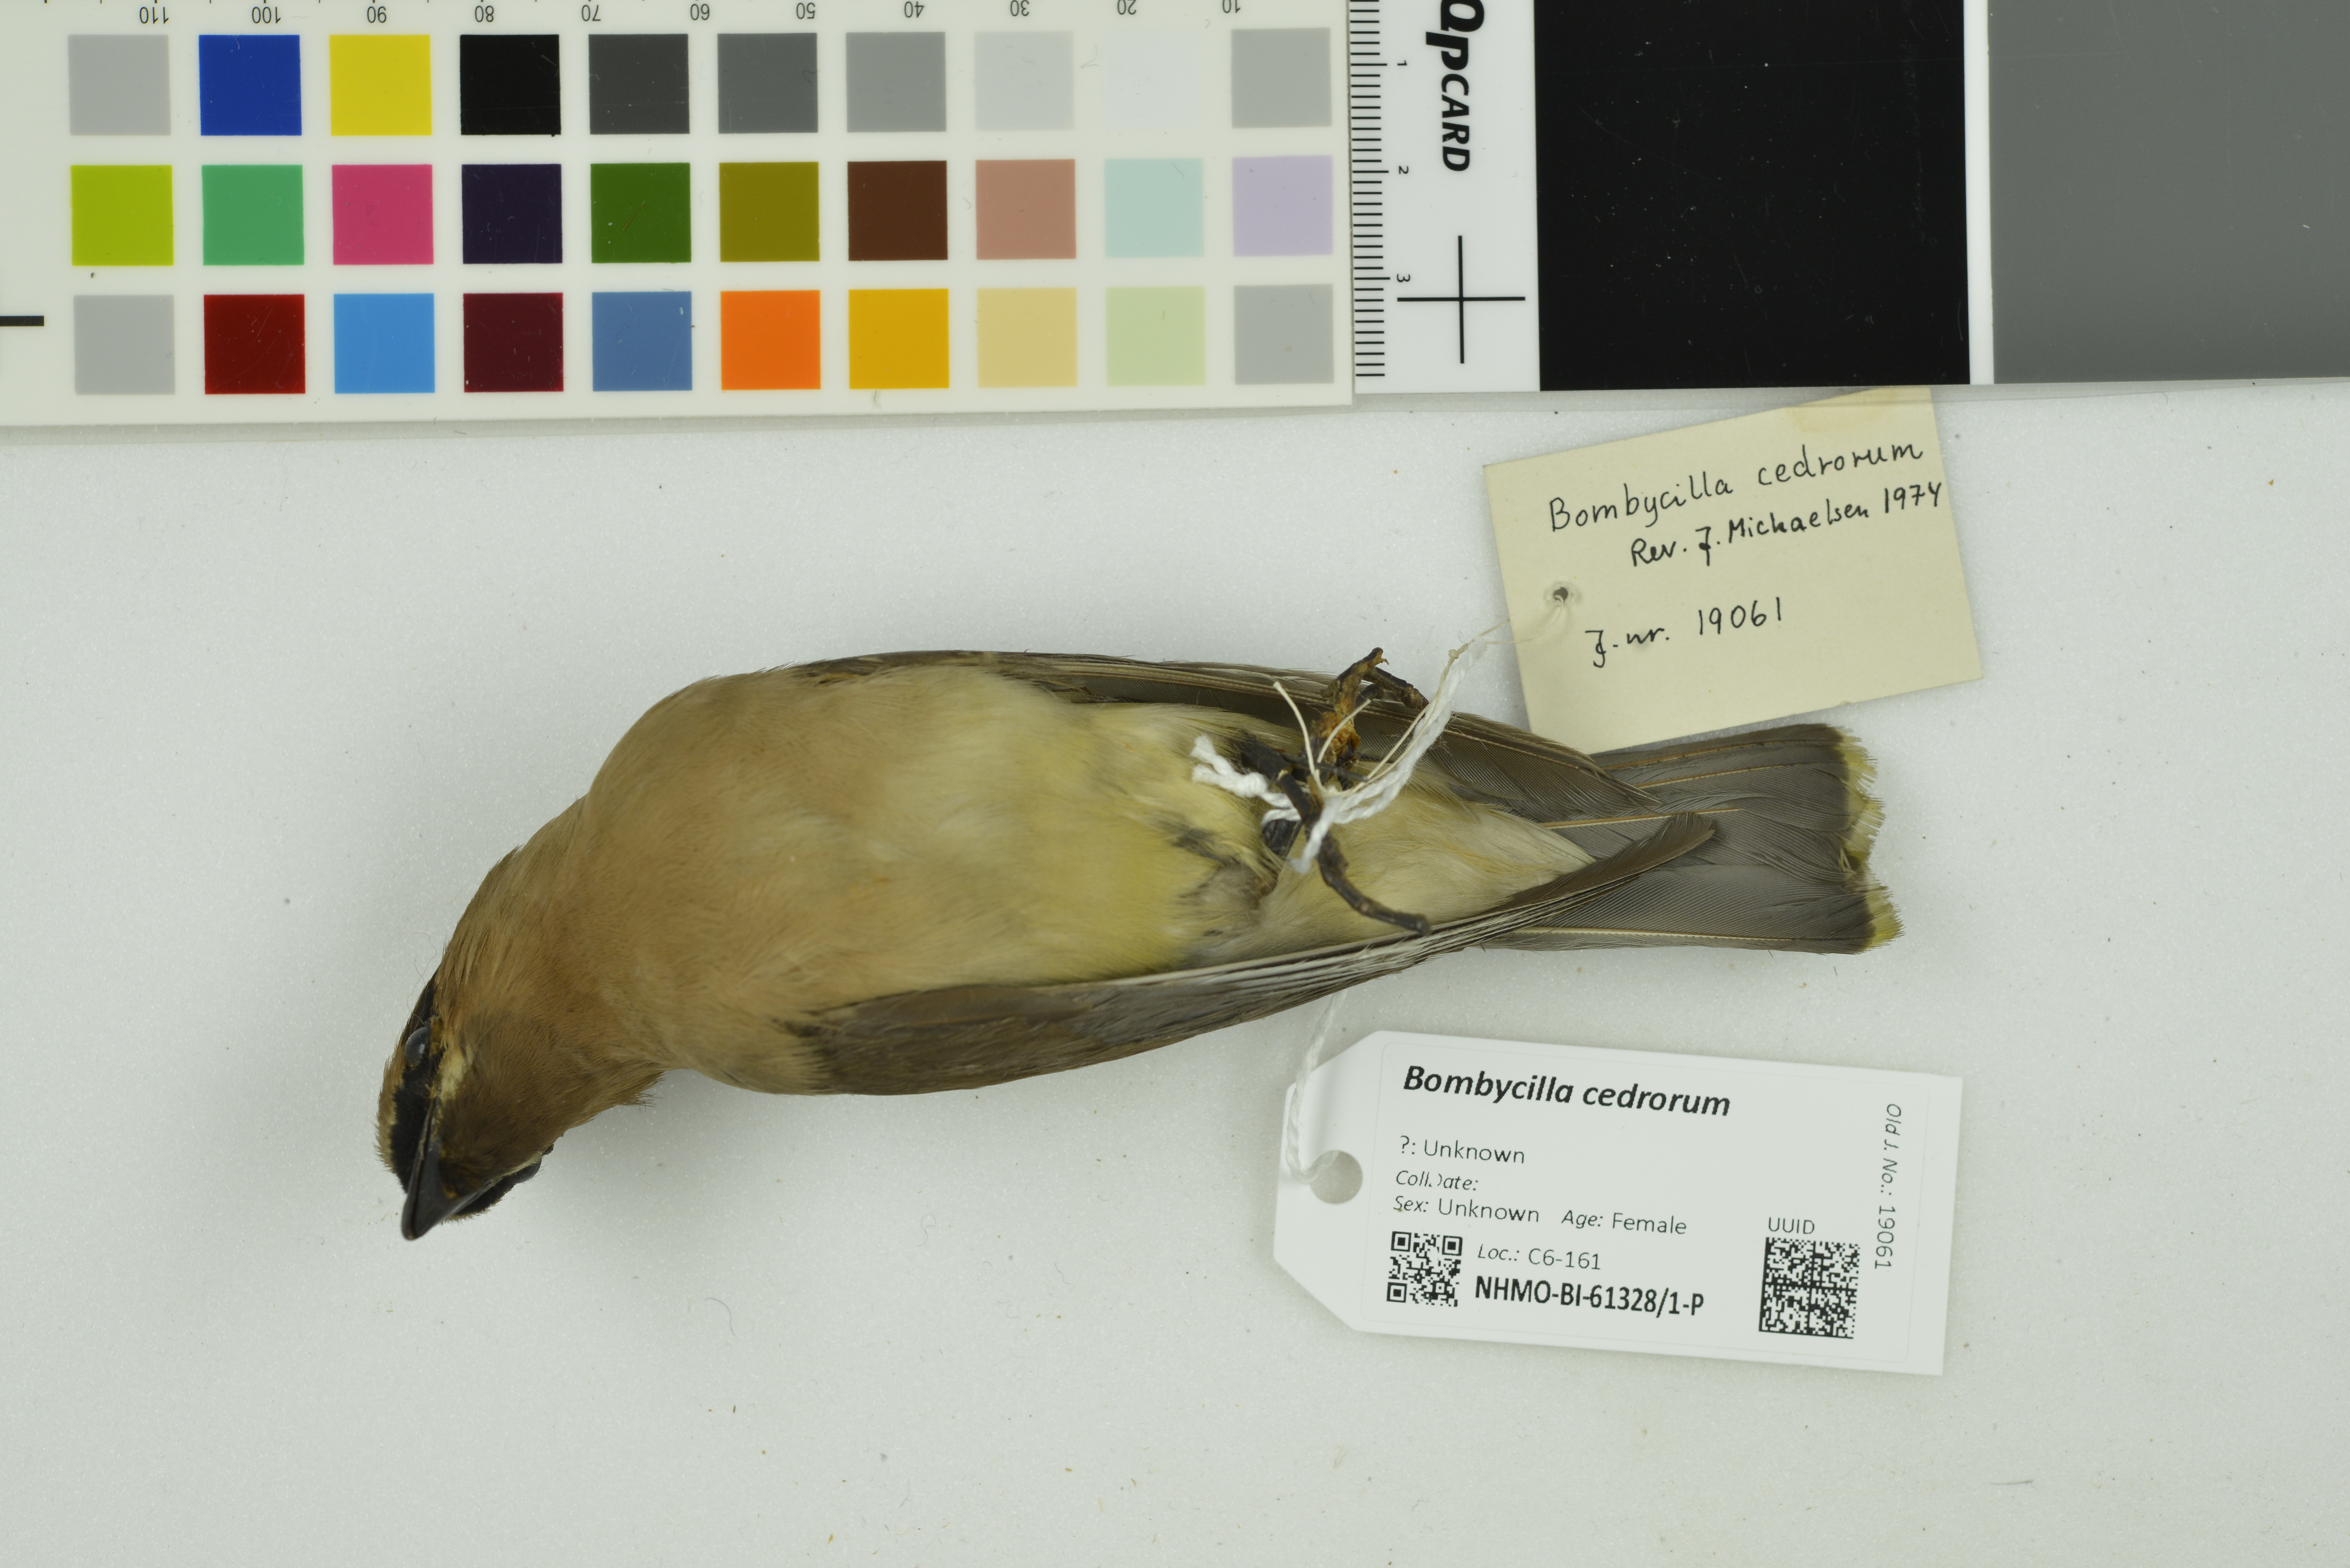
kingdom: Animalia
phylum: Chordata
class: Aves
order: Passeriformes
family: Bombycillidae
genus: Bombycilla
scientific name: Bombycilla cedrorum
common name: Cedar waxwing
